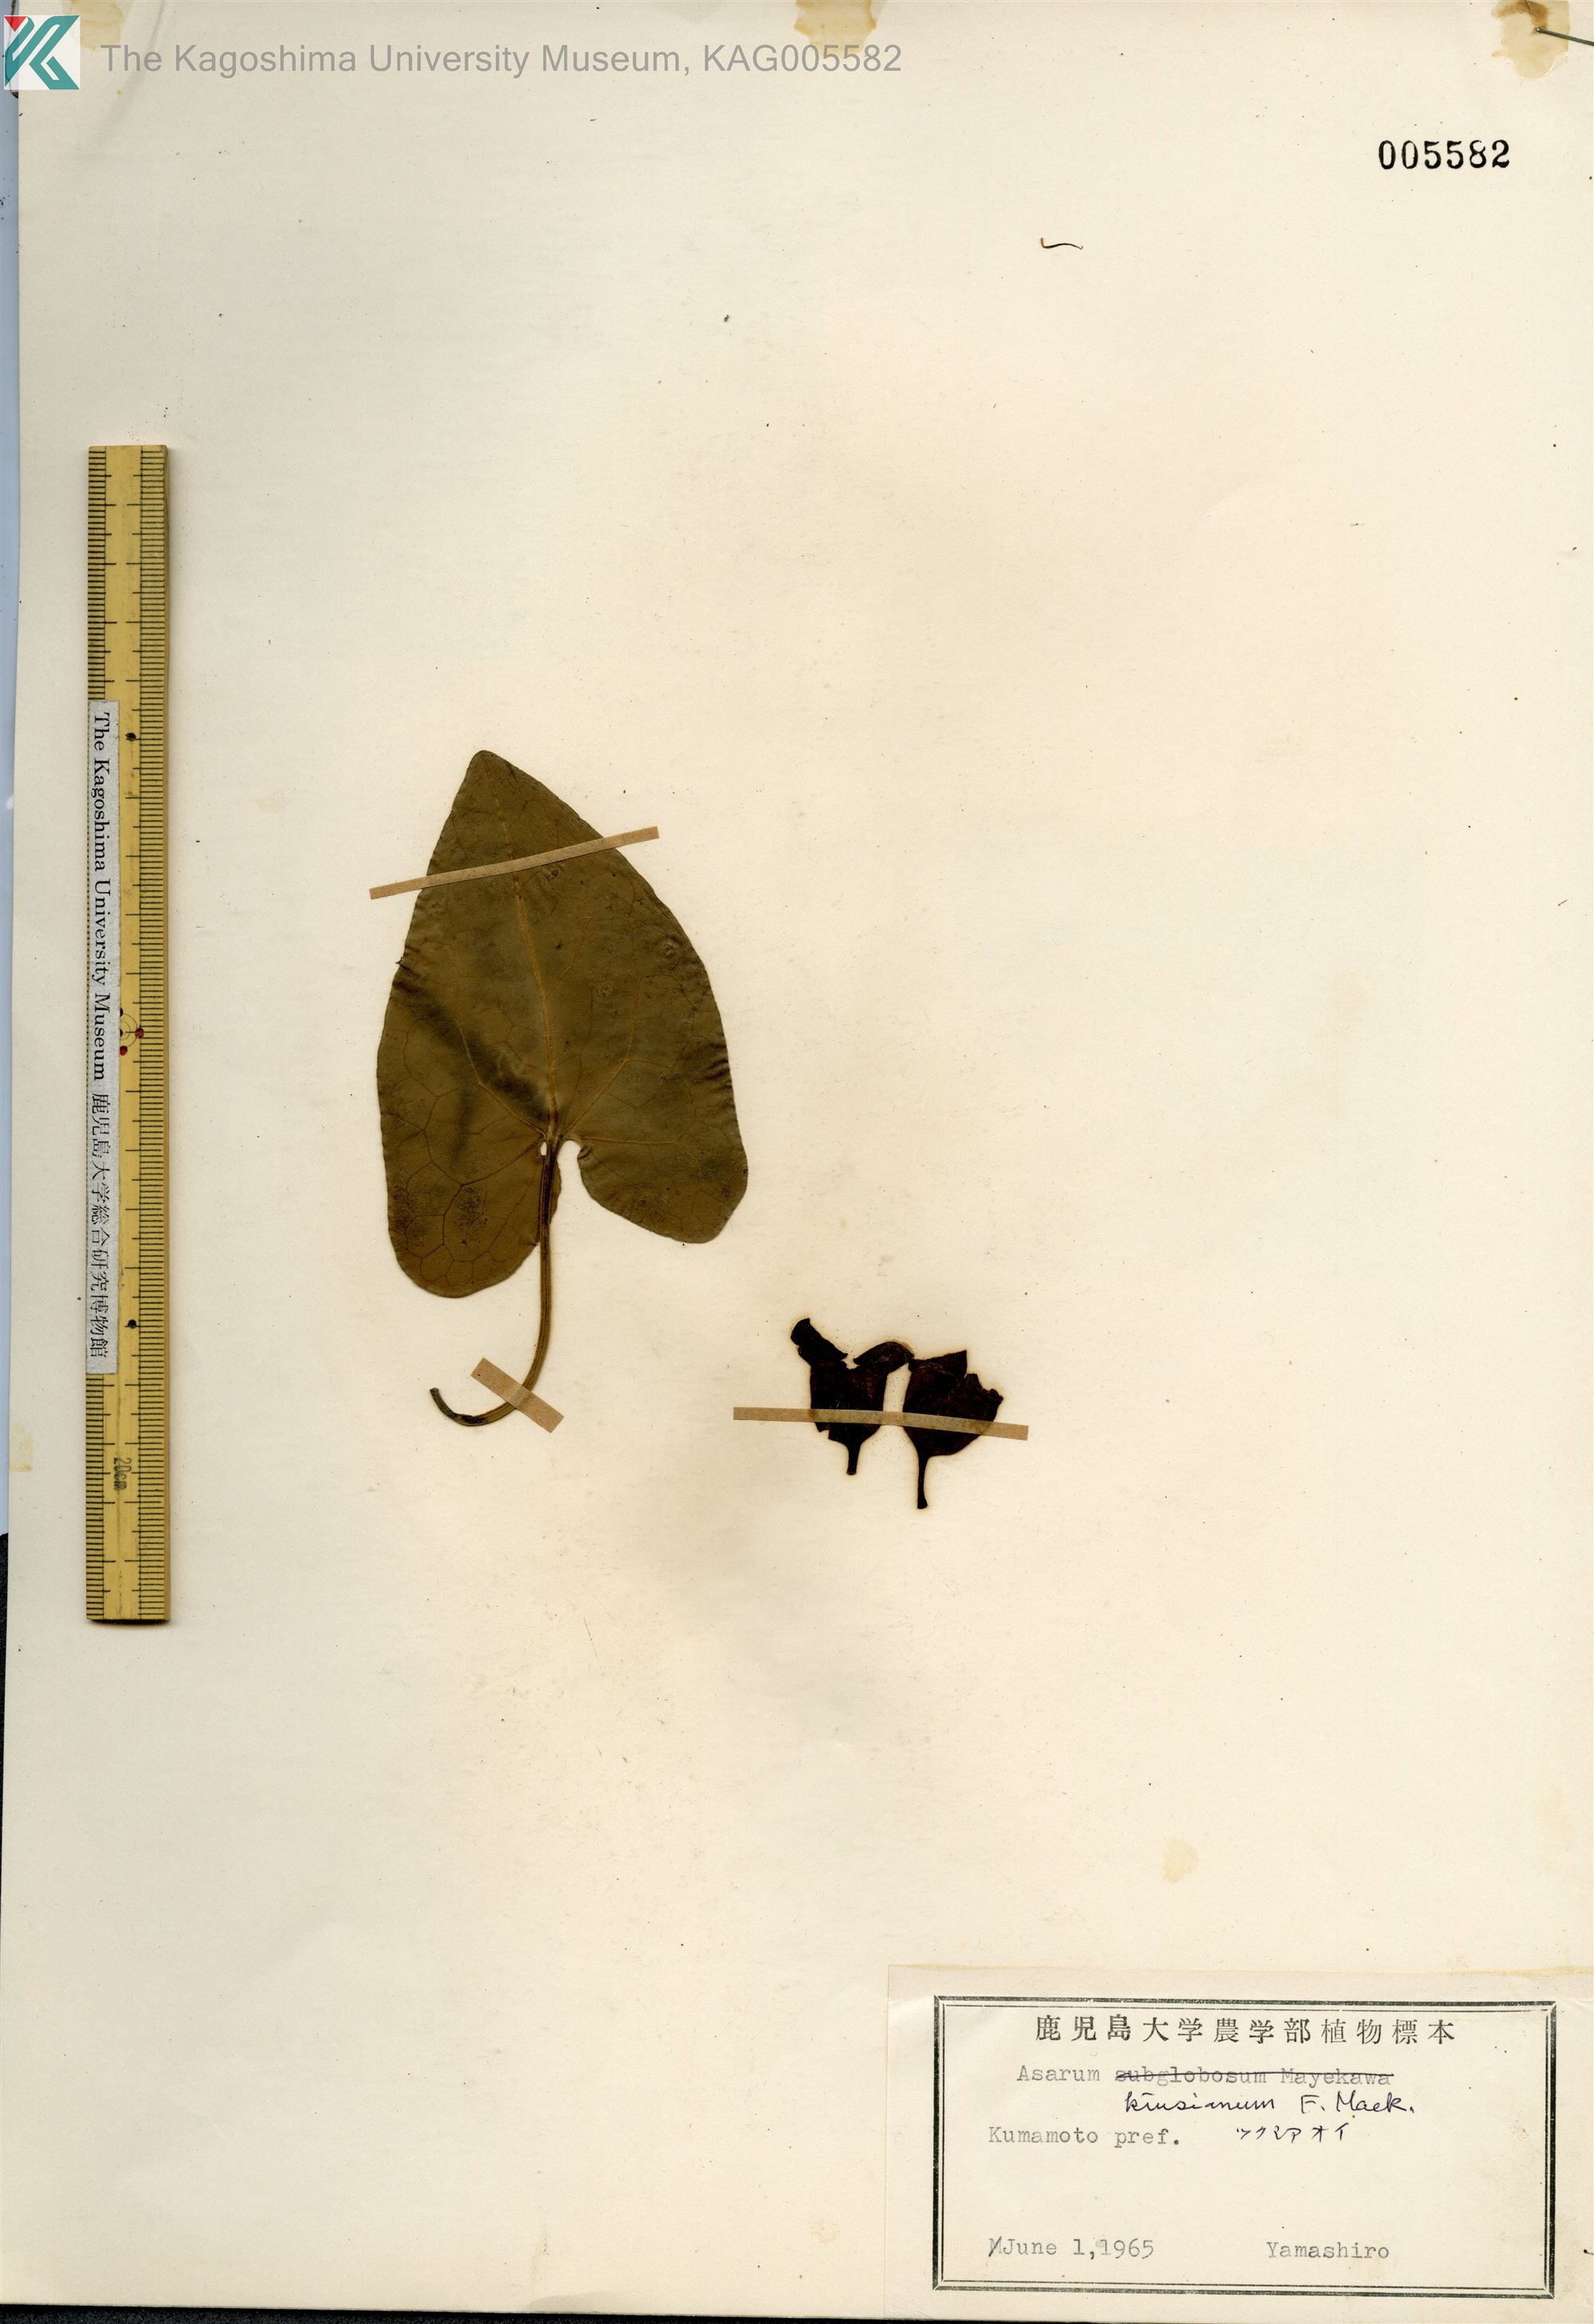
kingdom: Plantae
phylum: Tracheophyta
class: Magnoliopsida
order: Piperales
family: Aristolochiaceae
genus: Asarum
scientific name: Asarum kiusianum
